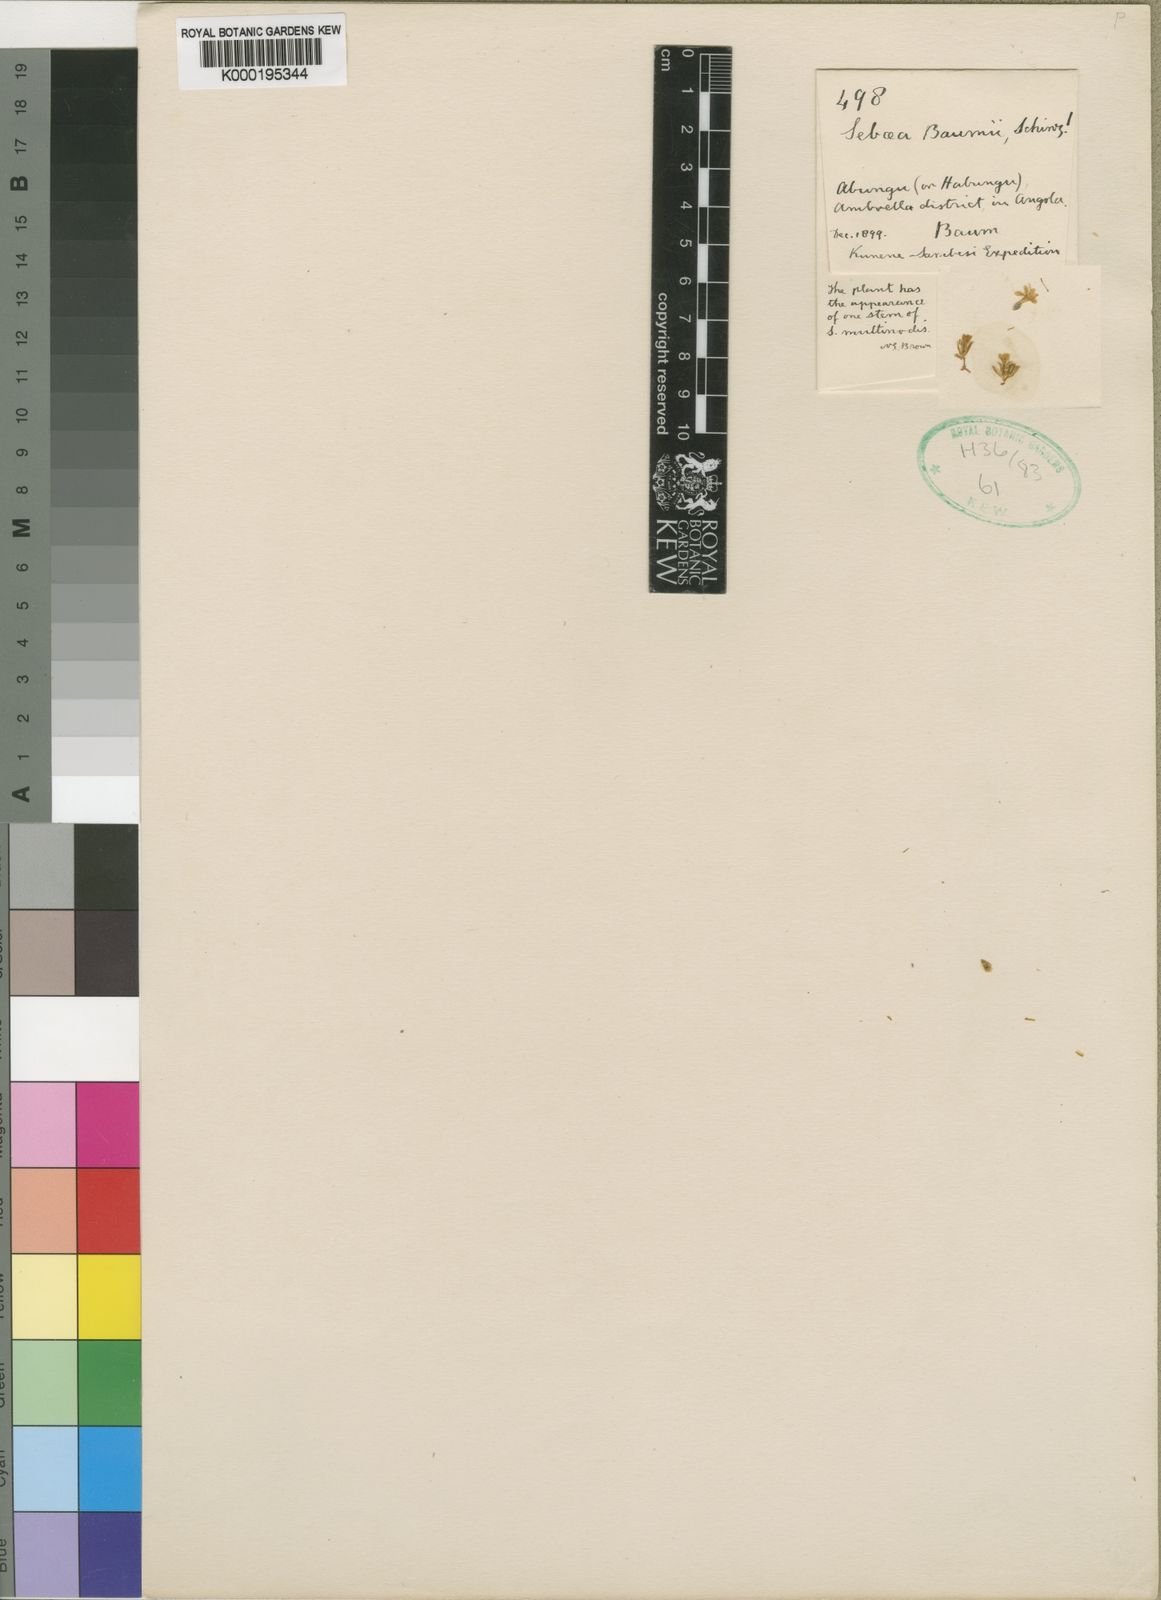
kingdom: Plantae
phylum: Tracheophyta
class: Magnoliopsida
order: Gentianales
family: Gentianaceae
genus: Sebaea
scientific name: Sebaea brachyphylla
